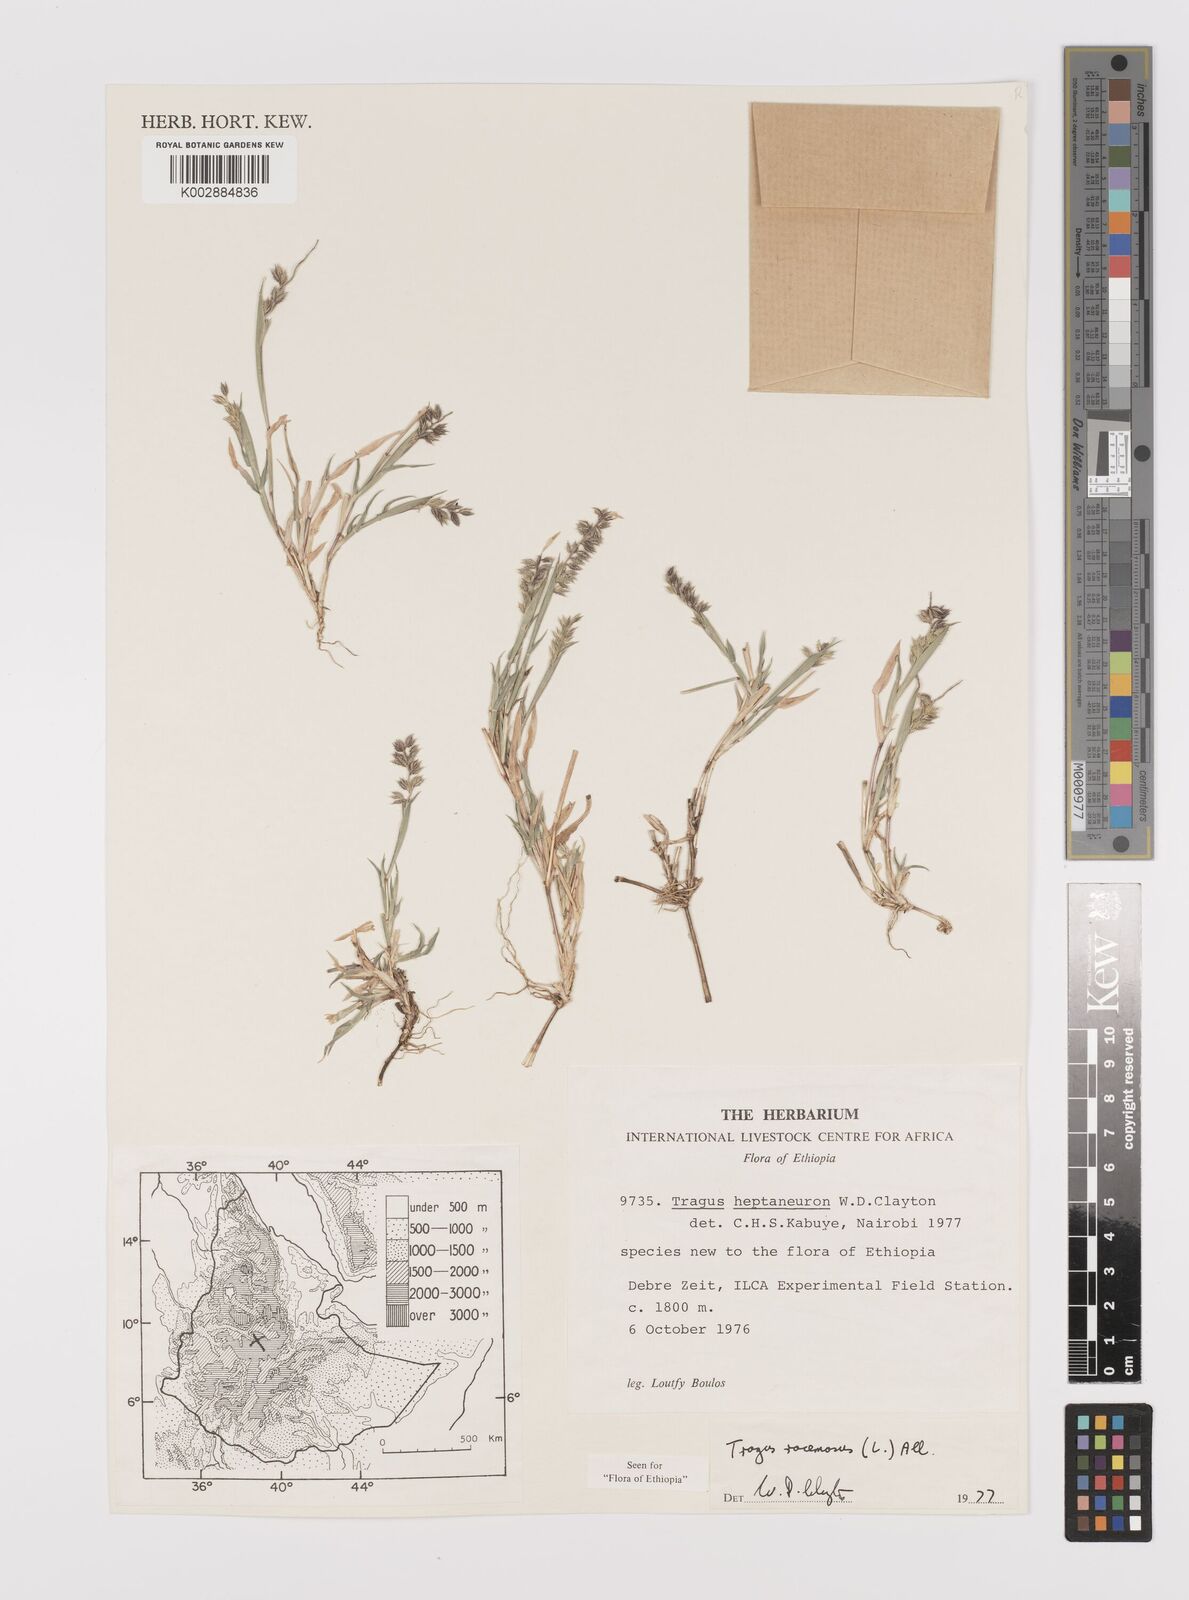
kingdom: Plantae
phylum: Tracheophyta
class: Liliopsida
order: Poales
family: Poaceae
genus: Tragus
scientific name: Tragus racemosus
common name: European bur-grass
